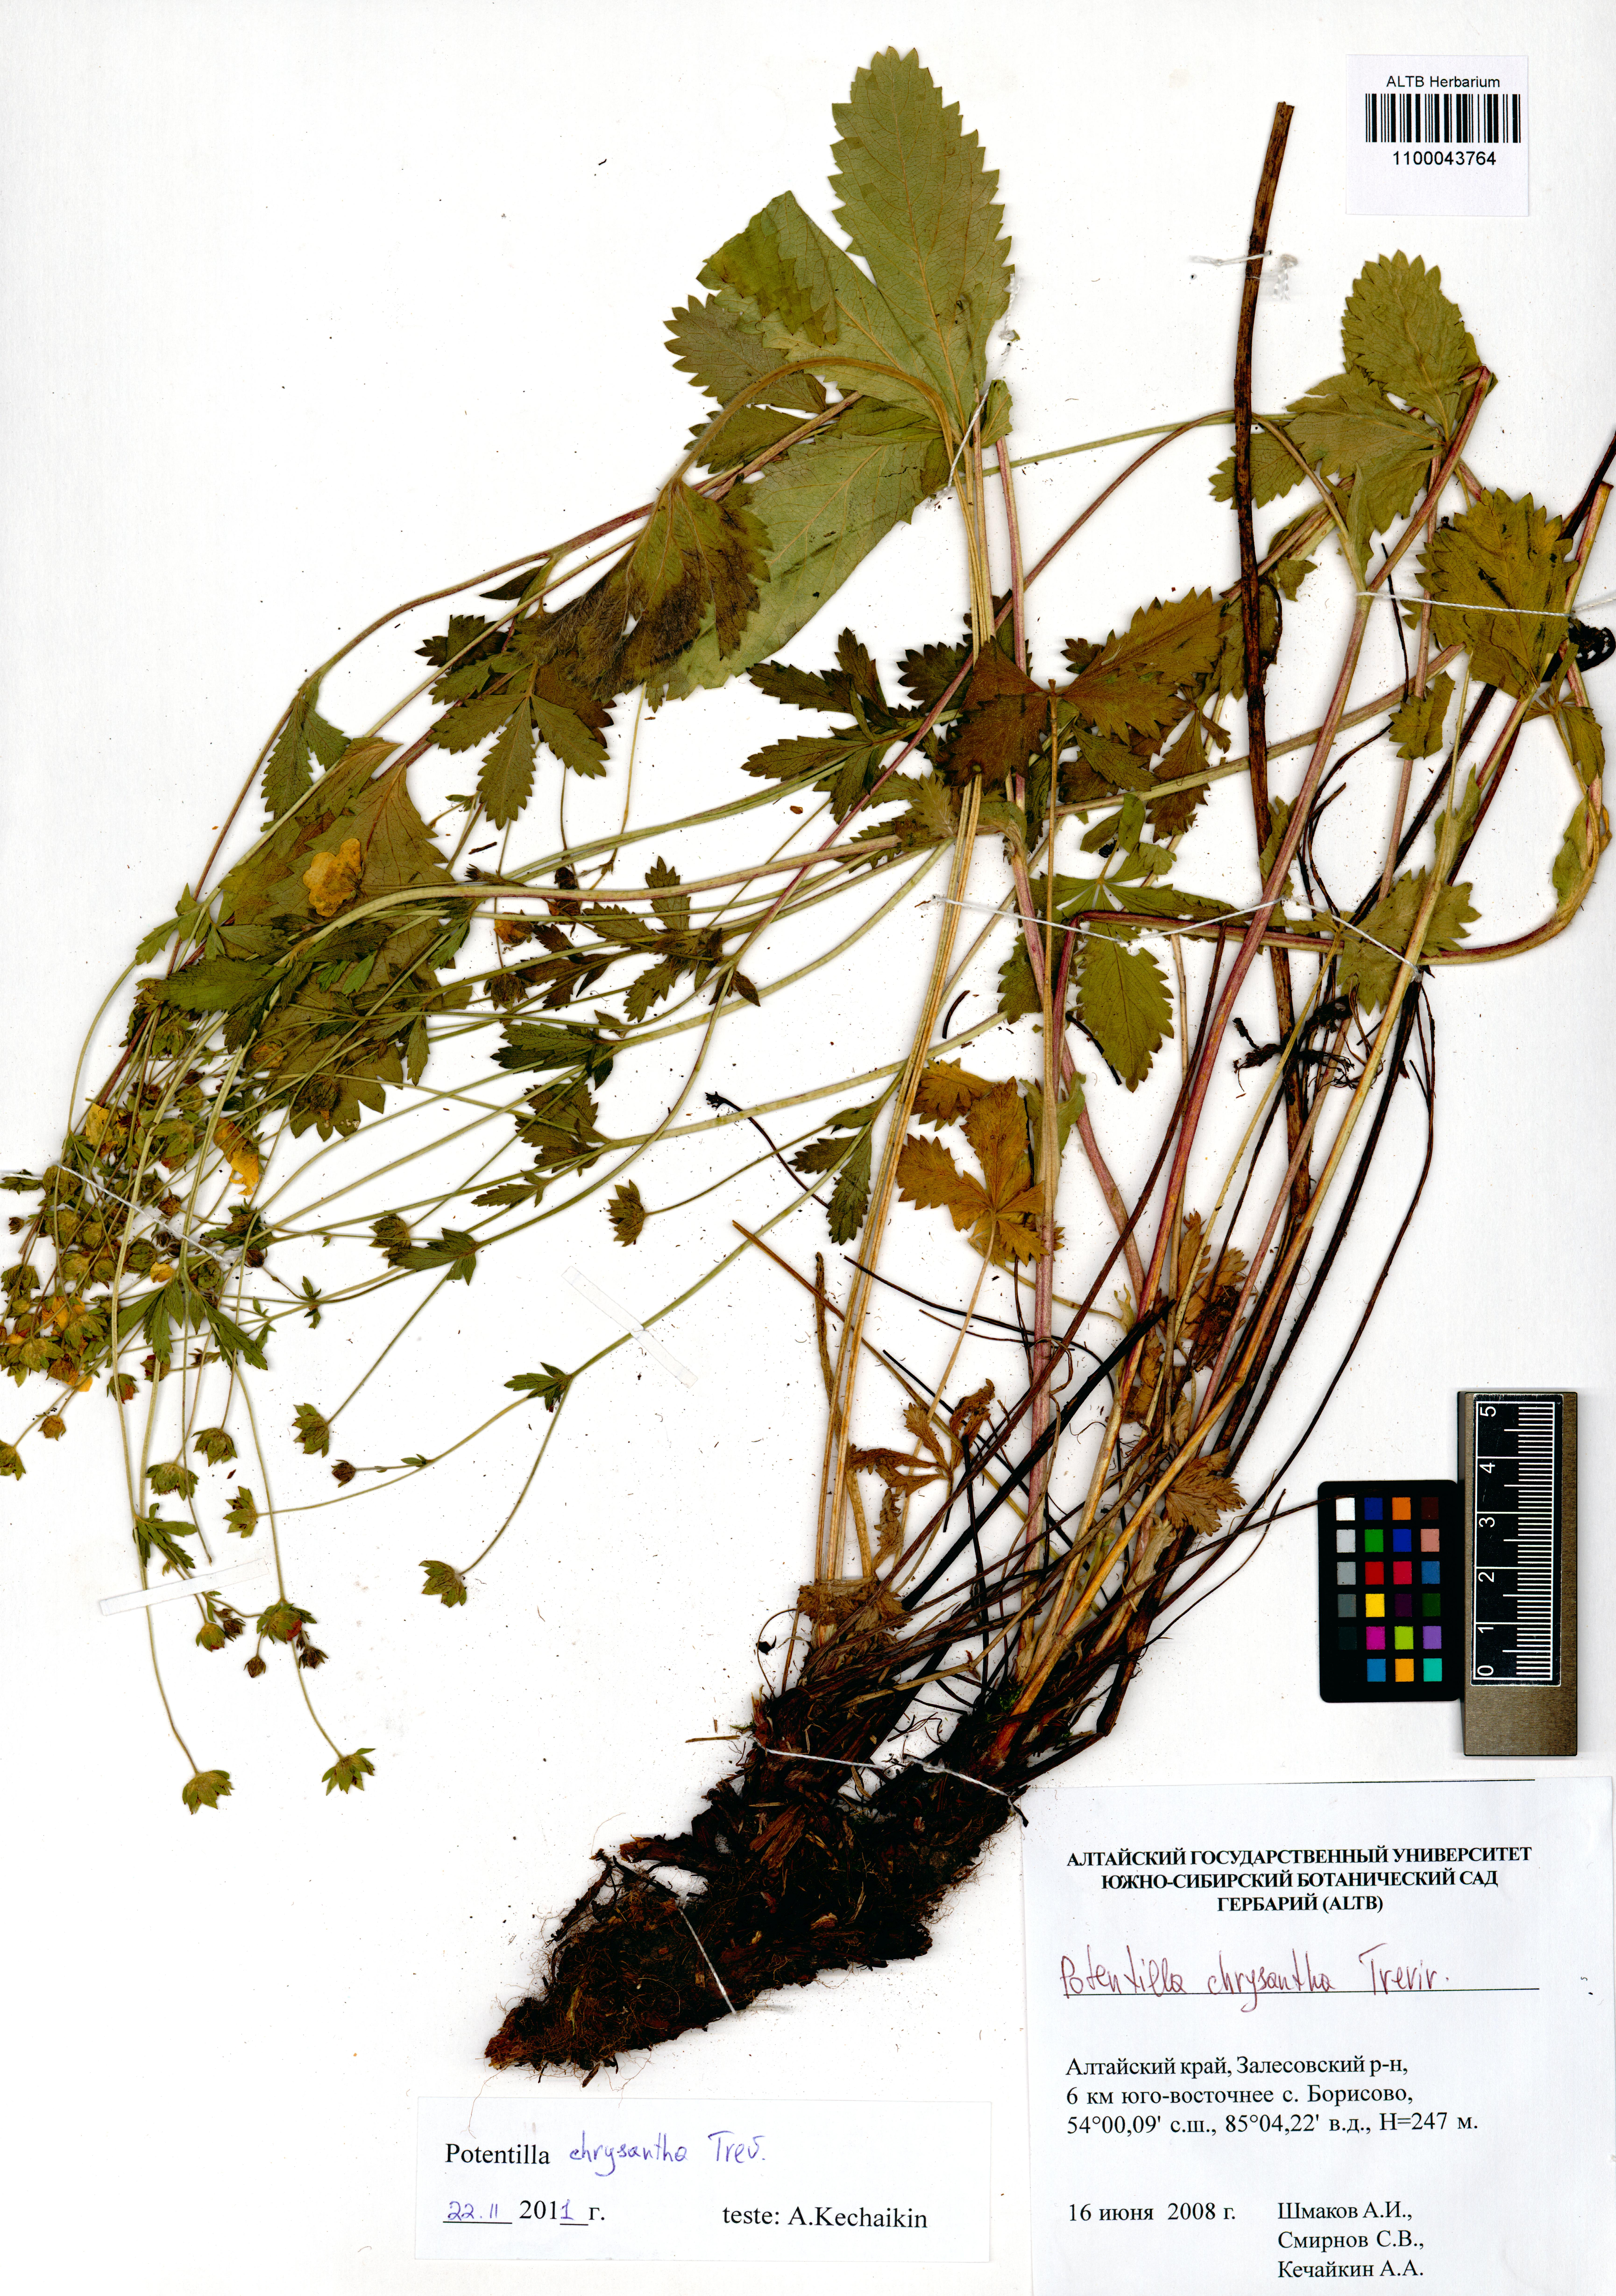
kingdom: Plantae
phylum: Tracheophyta
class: Magnoliopsida
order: Rosales
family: Rosaceae
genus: Potentilla
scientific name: Potentilla chrysantha
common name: Thuringian cinquefoil
